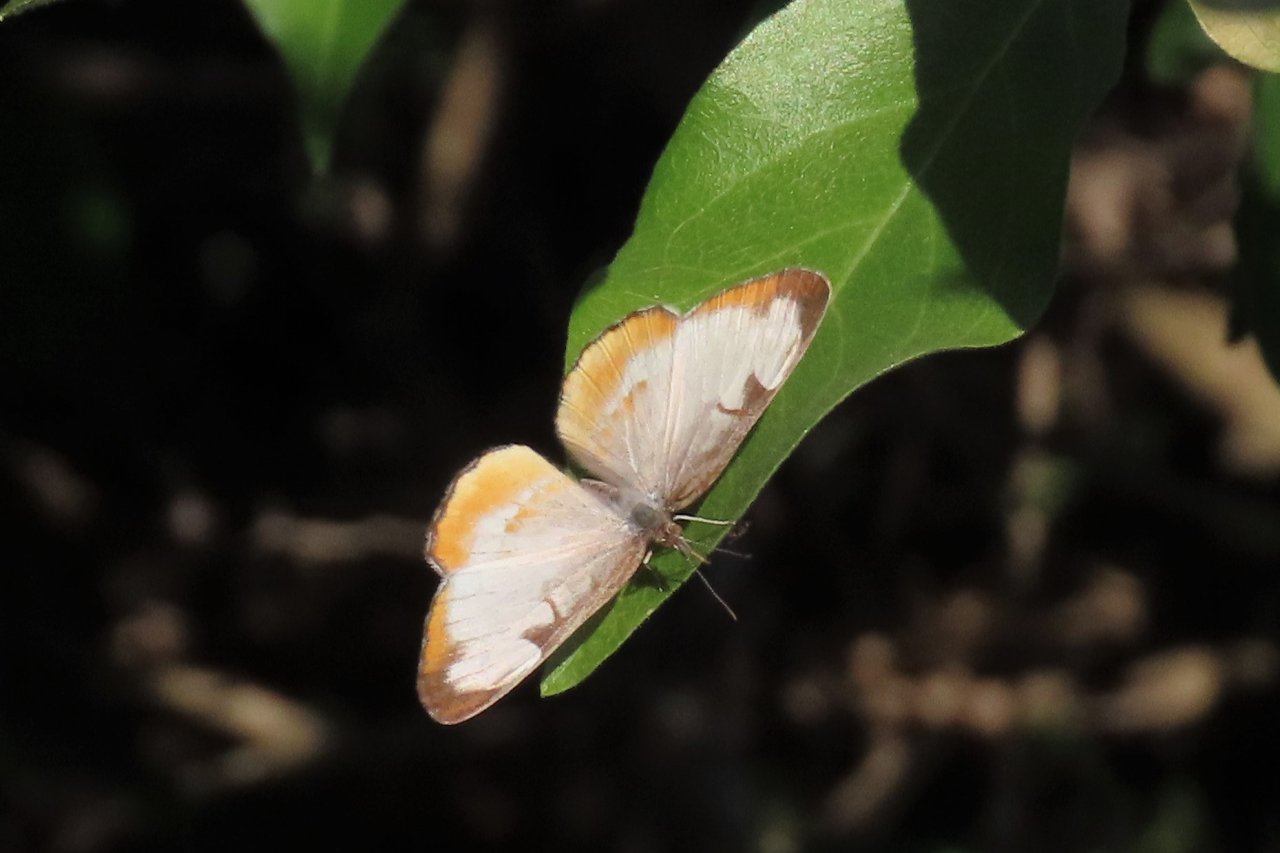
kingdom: Animalia
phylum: Arthropoda
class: Insecta
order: Lepidoptera
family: Nymphalidae
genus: Mestra
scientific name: Mestra amymone
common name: Common Mestra
